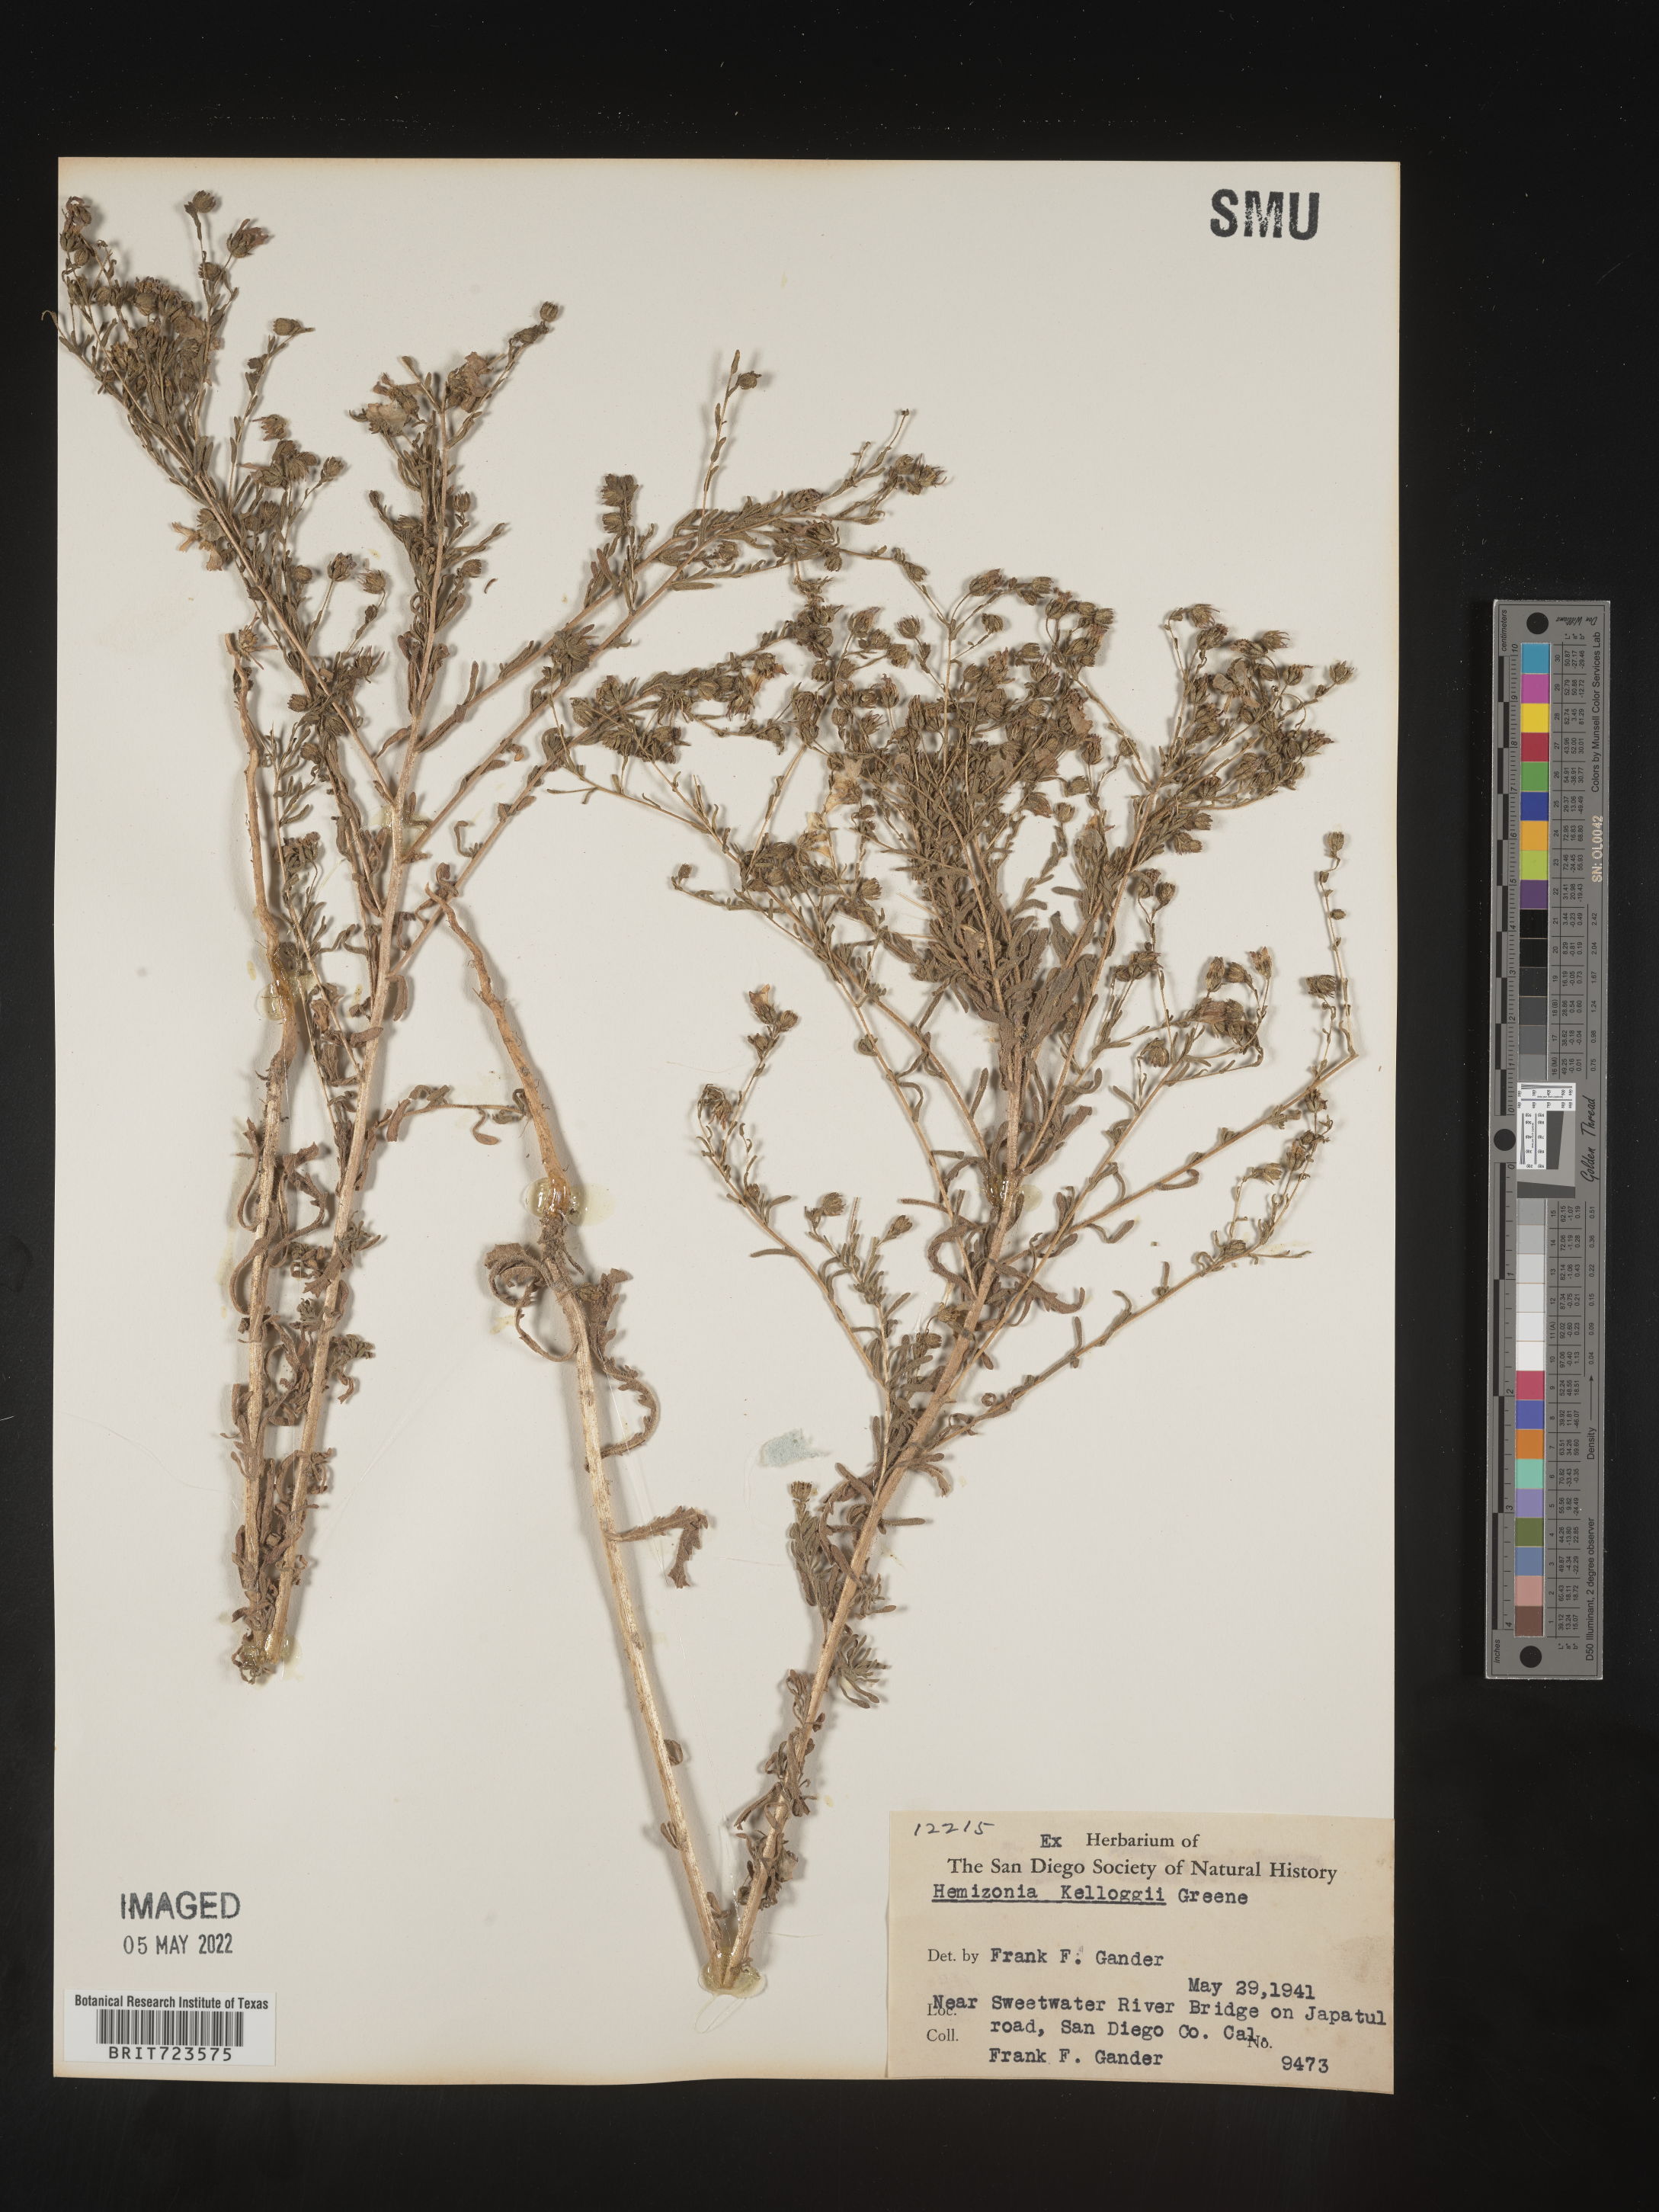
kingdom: Plantae
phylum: Tracheophyta
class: Magnoliopsida
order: Asterales
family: Asteraceae
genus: Hemizonia
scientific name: Hemizonia
